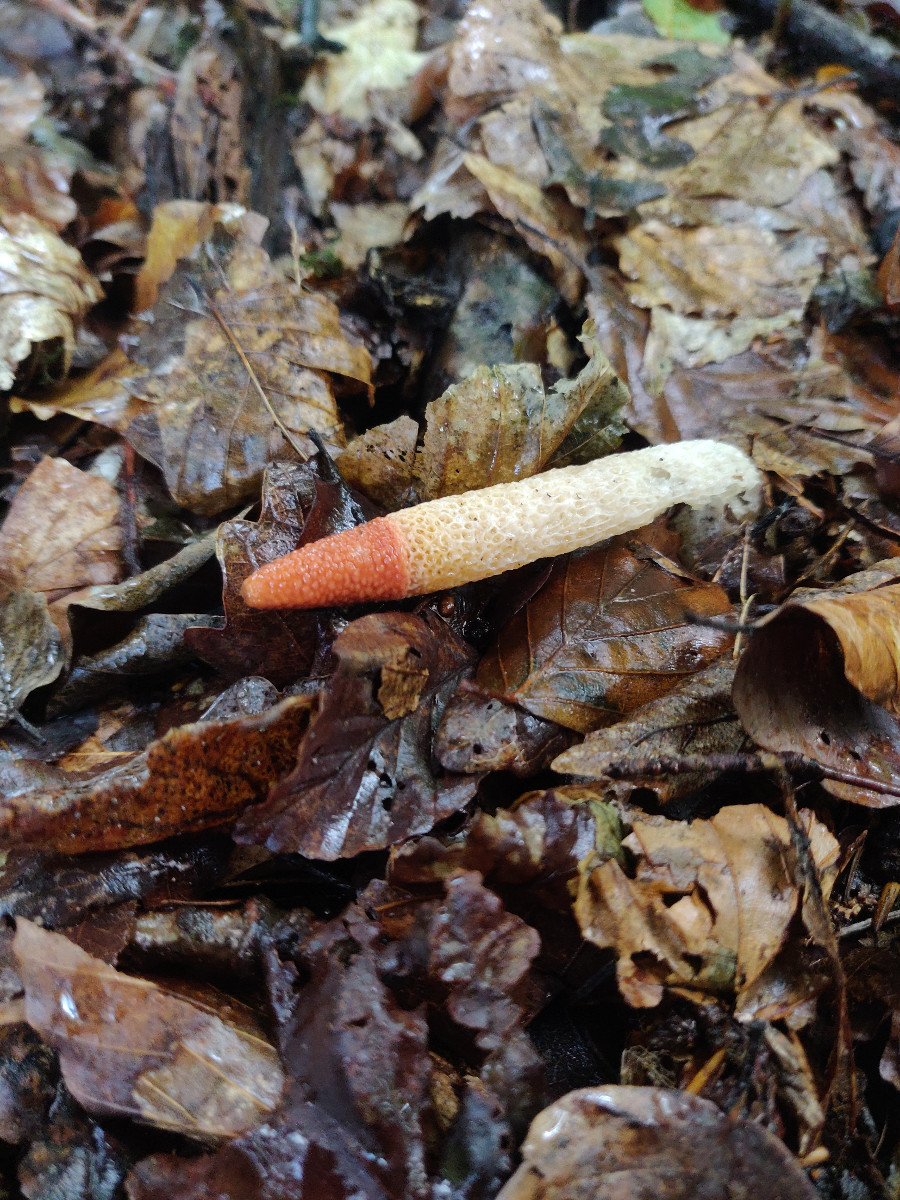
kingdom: Fungi
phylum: Basidiomycota
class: Agaricomycetes
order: Phallales
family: Phallaceae
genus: Mutinus
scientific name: Mutinus caninus
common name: hunde-stinksvamp
